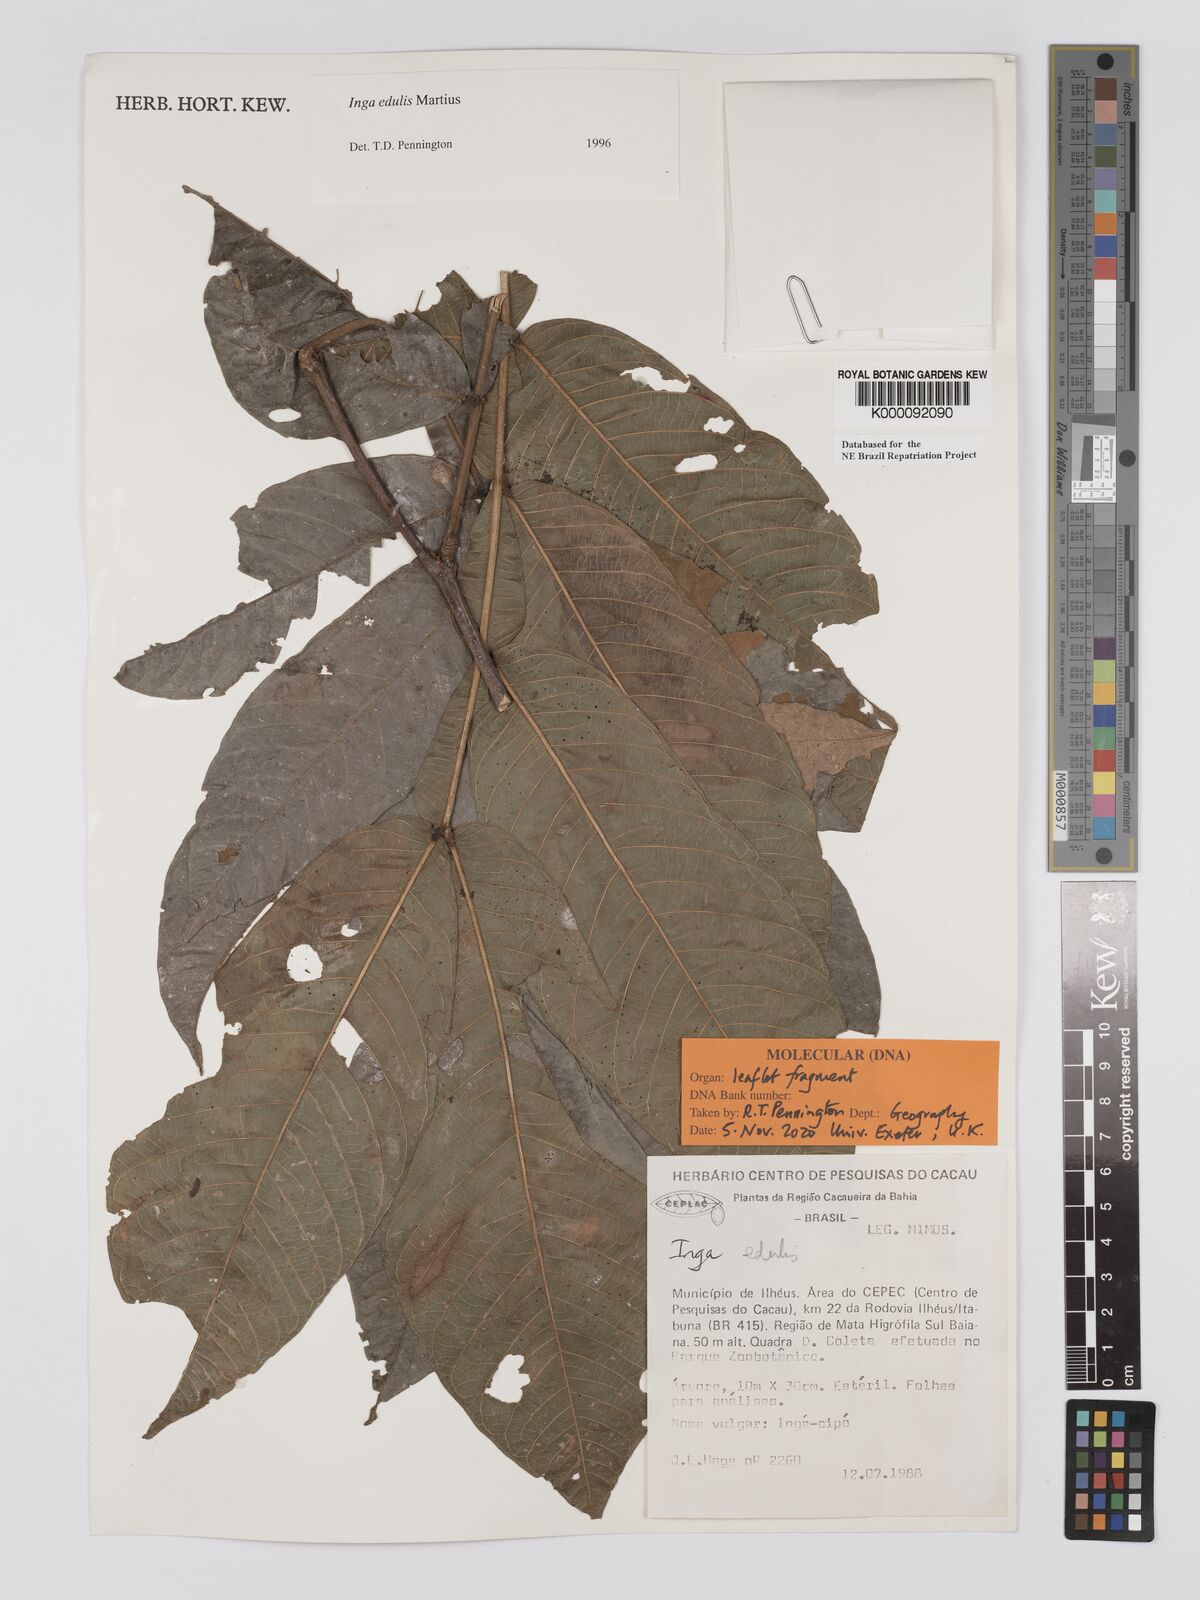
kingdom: Plantae
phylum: Tracheophyta
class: Magnoliopsida
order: Fabales
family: Fabaceae
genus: Inga
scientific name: Inga edulis
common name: Ice cream bean
